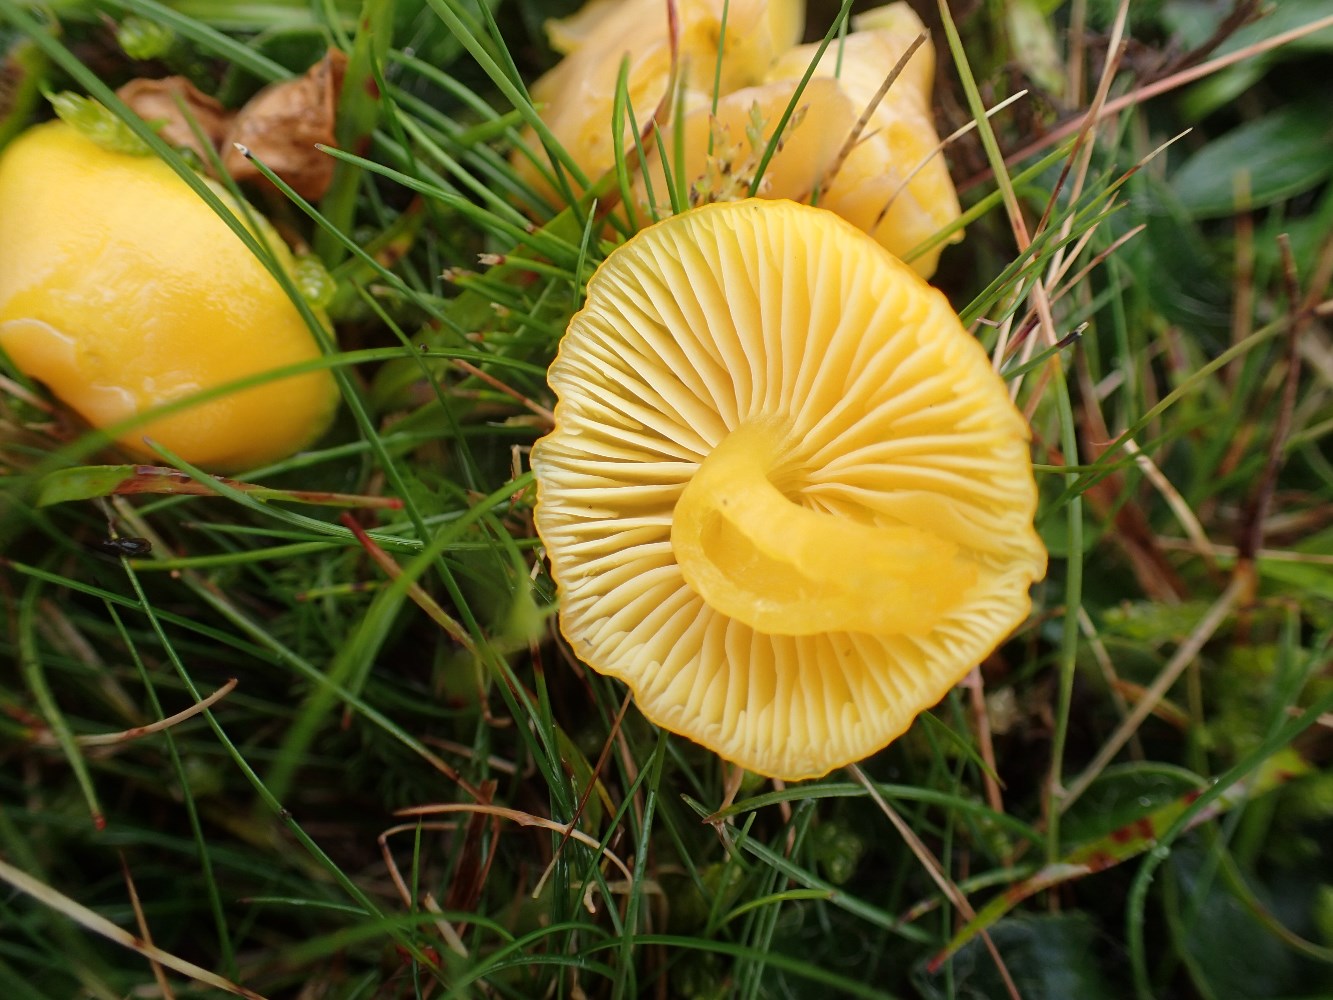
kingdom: Fungi
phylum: Basidiomycota
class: Agaricomycetes
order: Agaricales
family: Hygrophoraceae
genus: Hygrocybe
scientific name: Hygrocybe chlorophana
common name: gul vokshat
